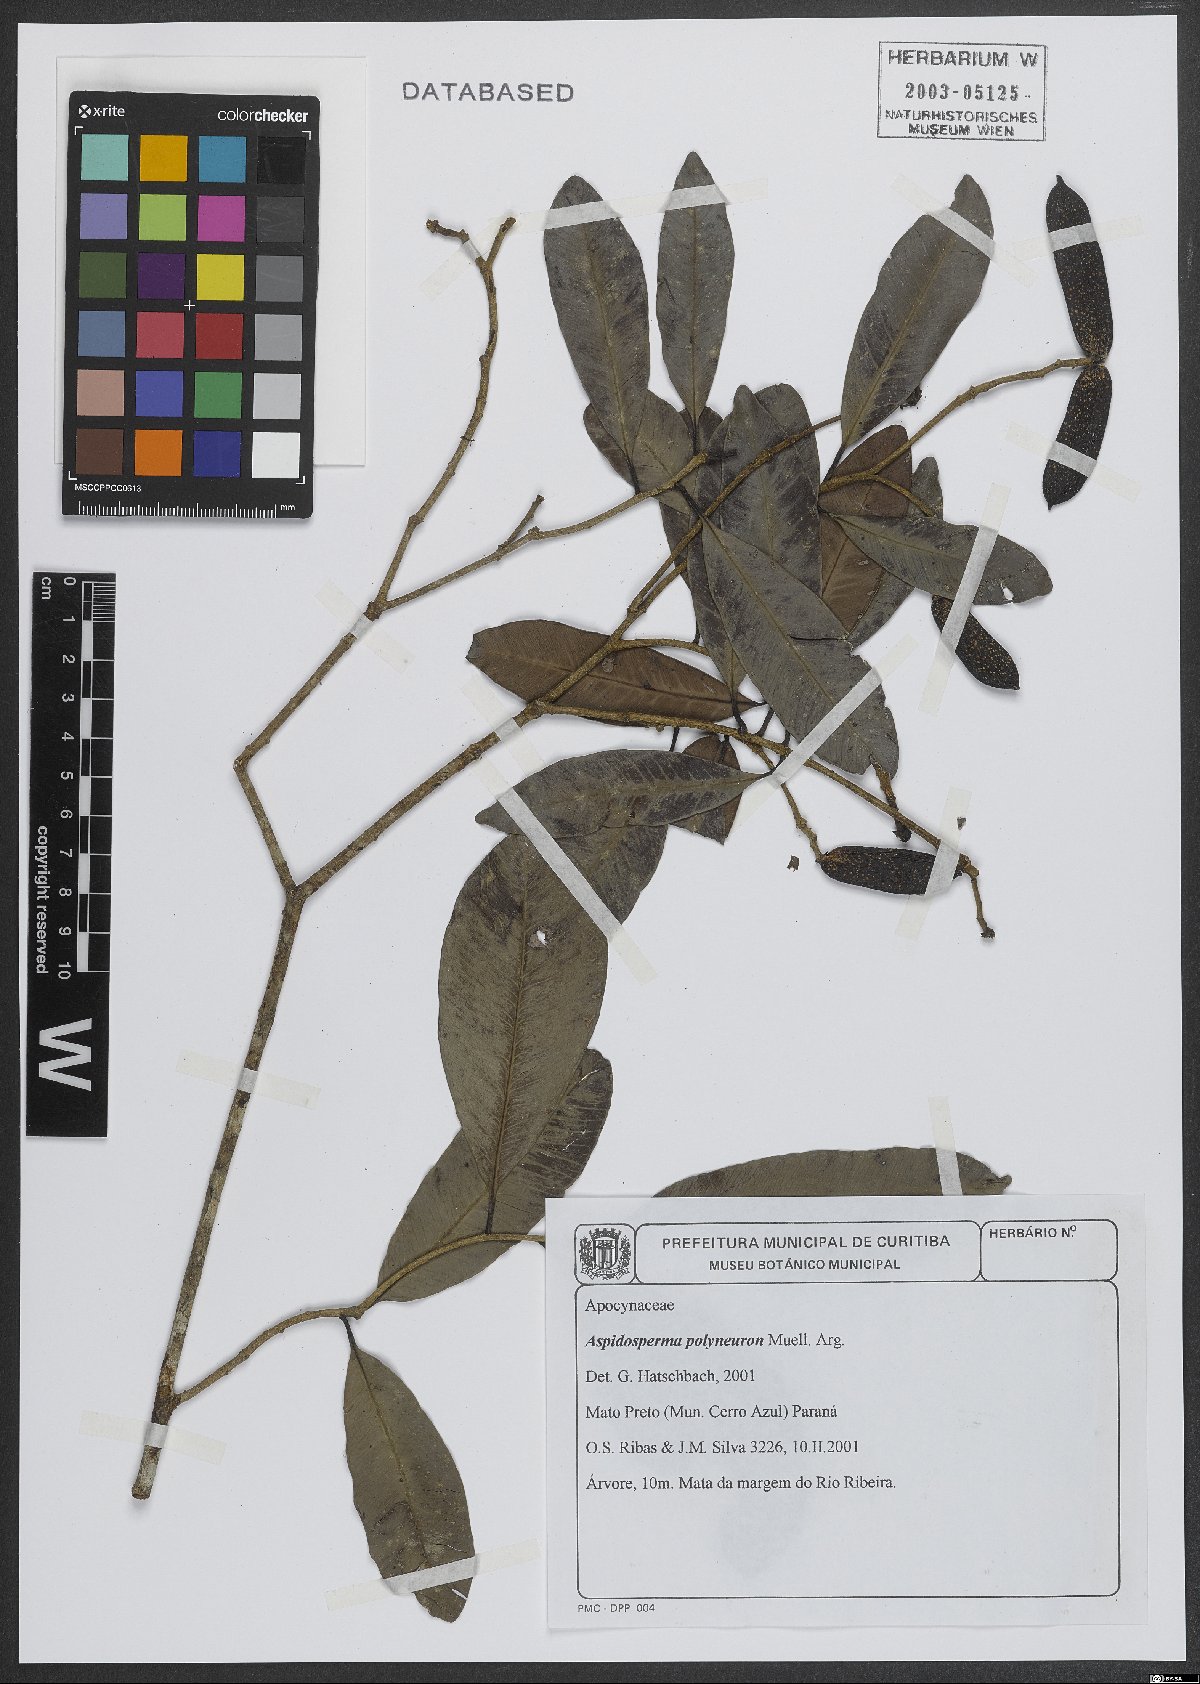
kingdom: Plantae
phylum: Tracheophyta
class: Magnoliopsida
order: Gentianales
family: Apocynaceae
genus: Aspidosperma
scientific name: Aspidosperma polyneuron
